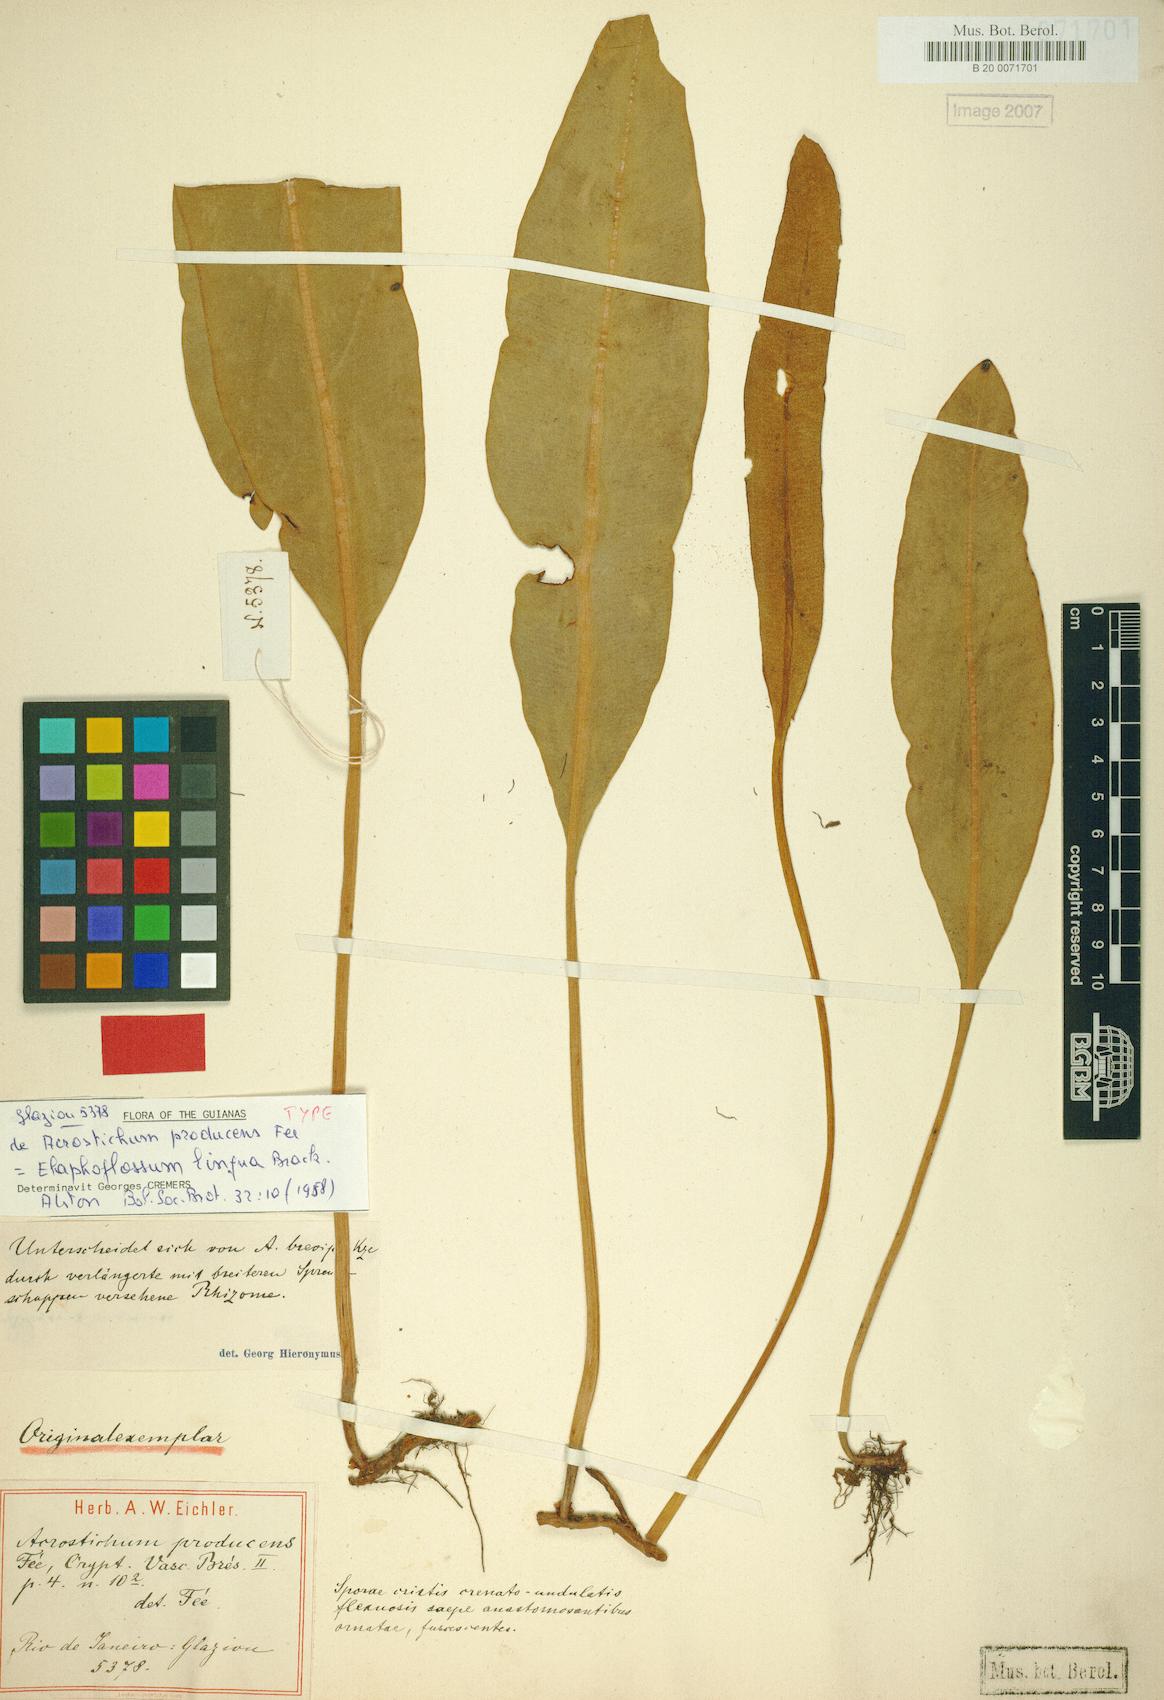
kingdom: Plantae
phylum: Tracheophyta
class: Polypodiopsida
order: Polypodiales
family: Dryopteridaceae
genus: Elaphoglossum
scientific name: Elaphoglossum lingua
